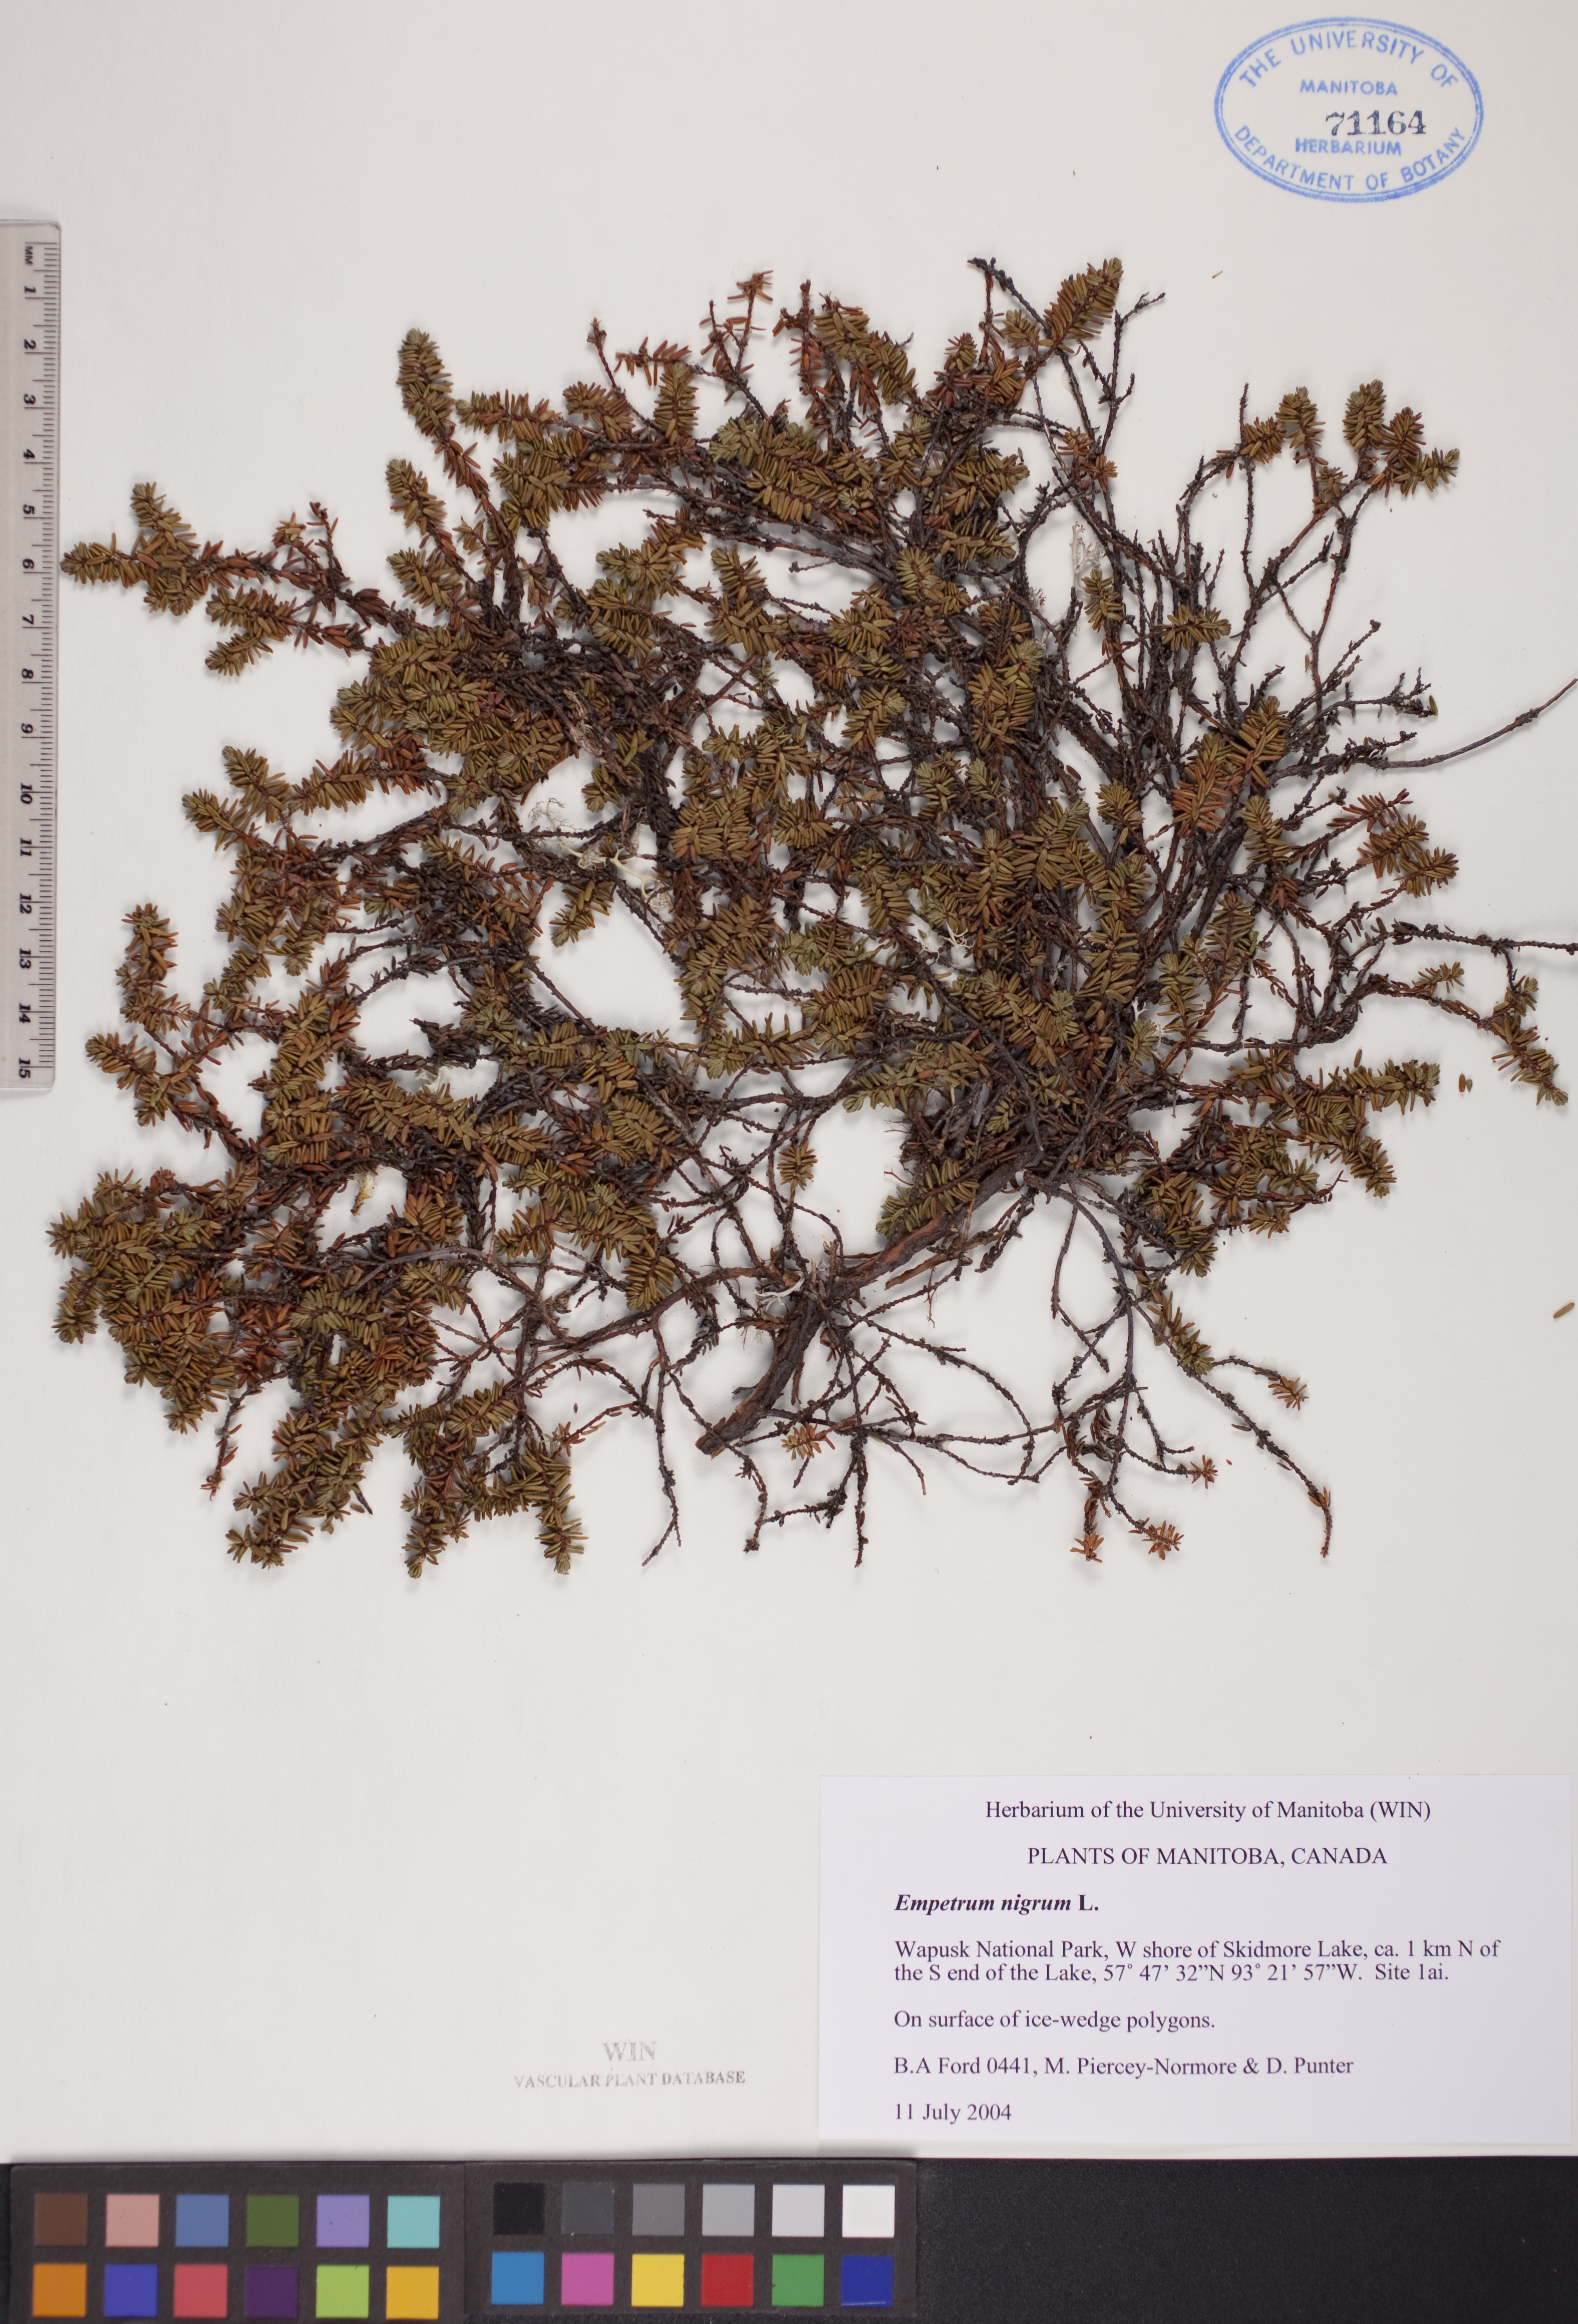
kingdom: Plantae
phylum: Tracheophyta
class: Magnoliopsida
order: Ericales
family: Ericaceae
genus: Empetrum
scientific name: Empetrum nigrum
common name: Black crowberry
